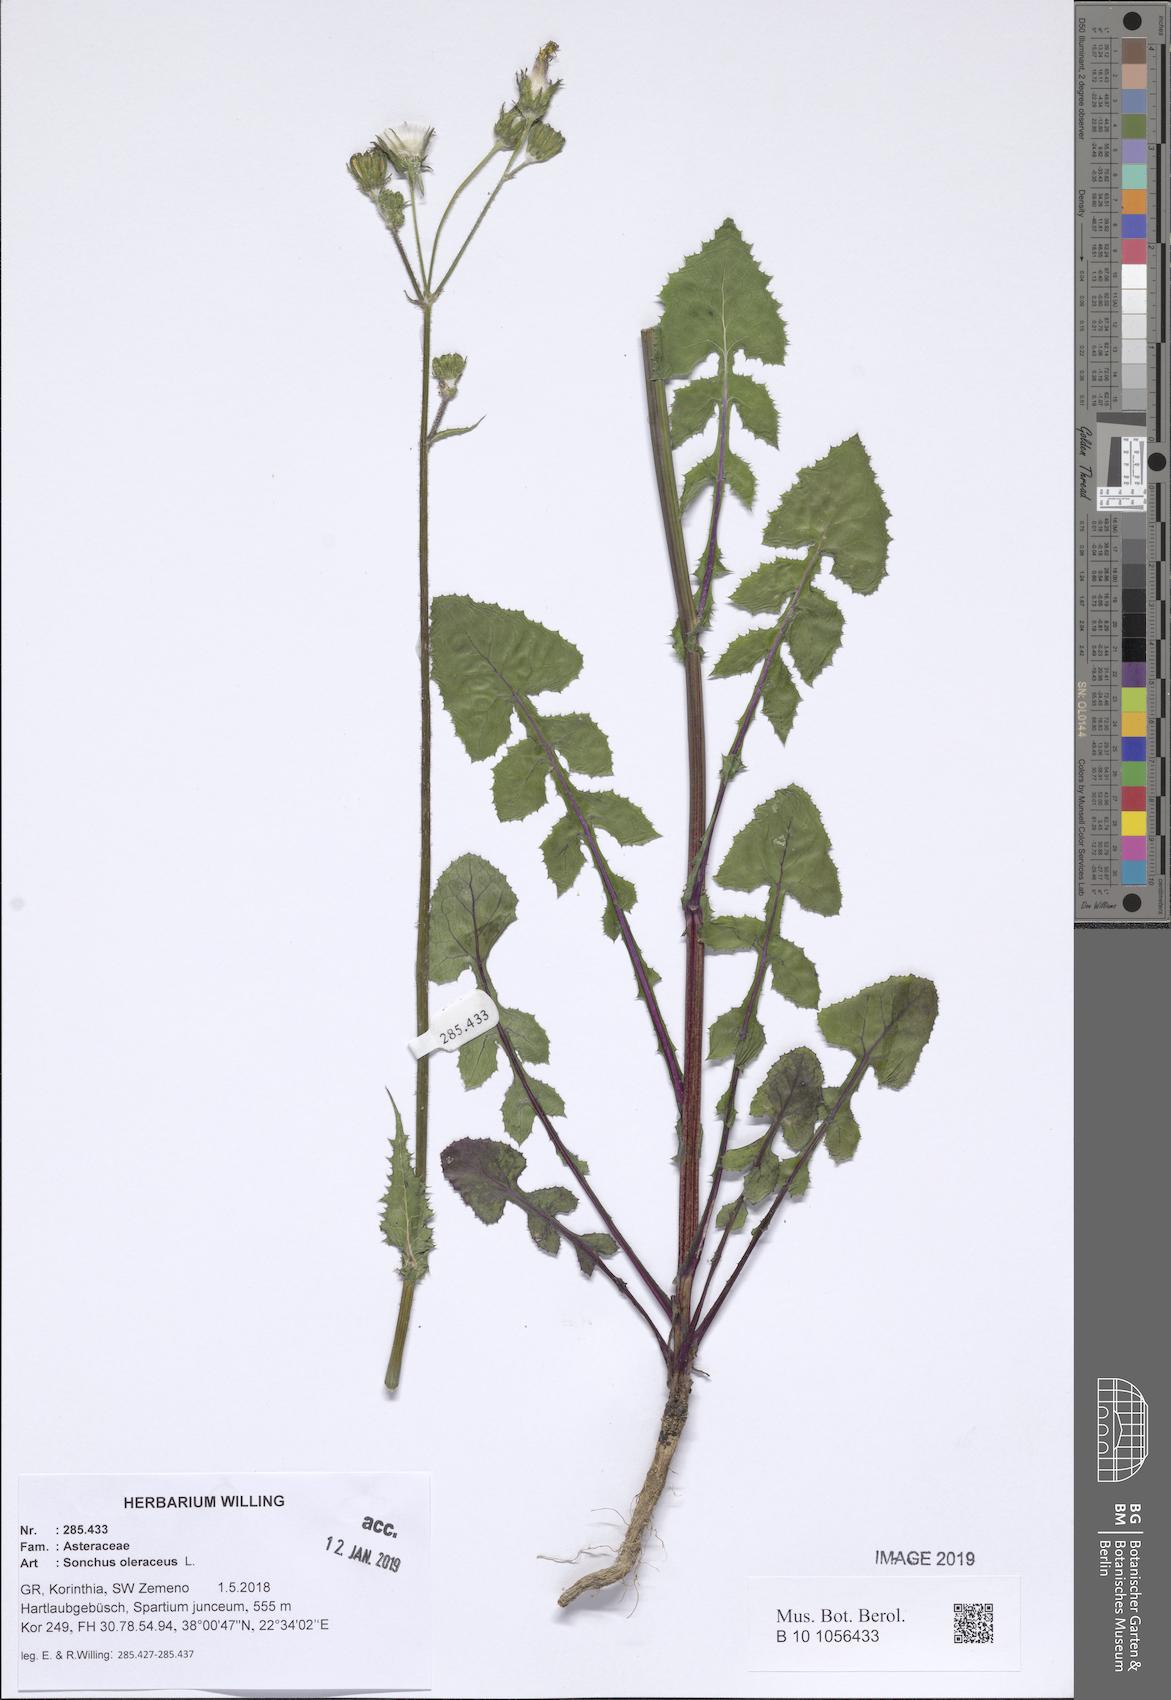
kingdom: Plantae
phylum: Tracheophyta
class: Magnoliopsida
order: Asterales
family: Asteraceae
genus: Sonchus
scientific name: Sonchus oleraceus
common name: Common sowthistle
